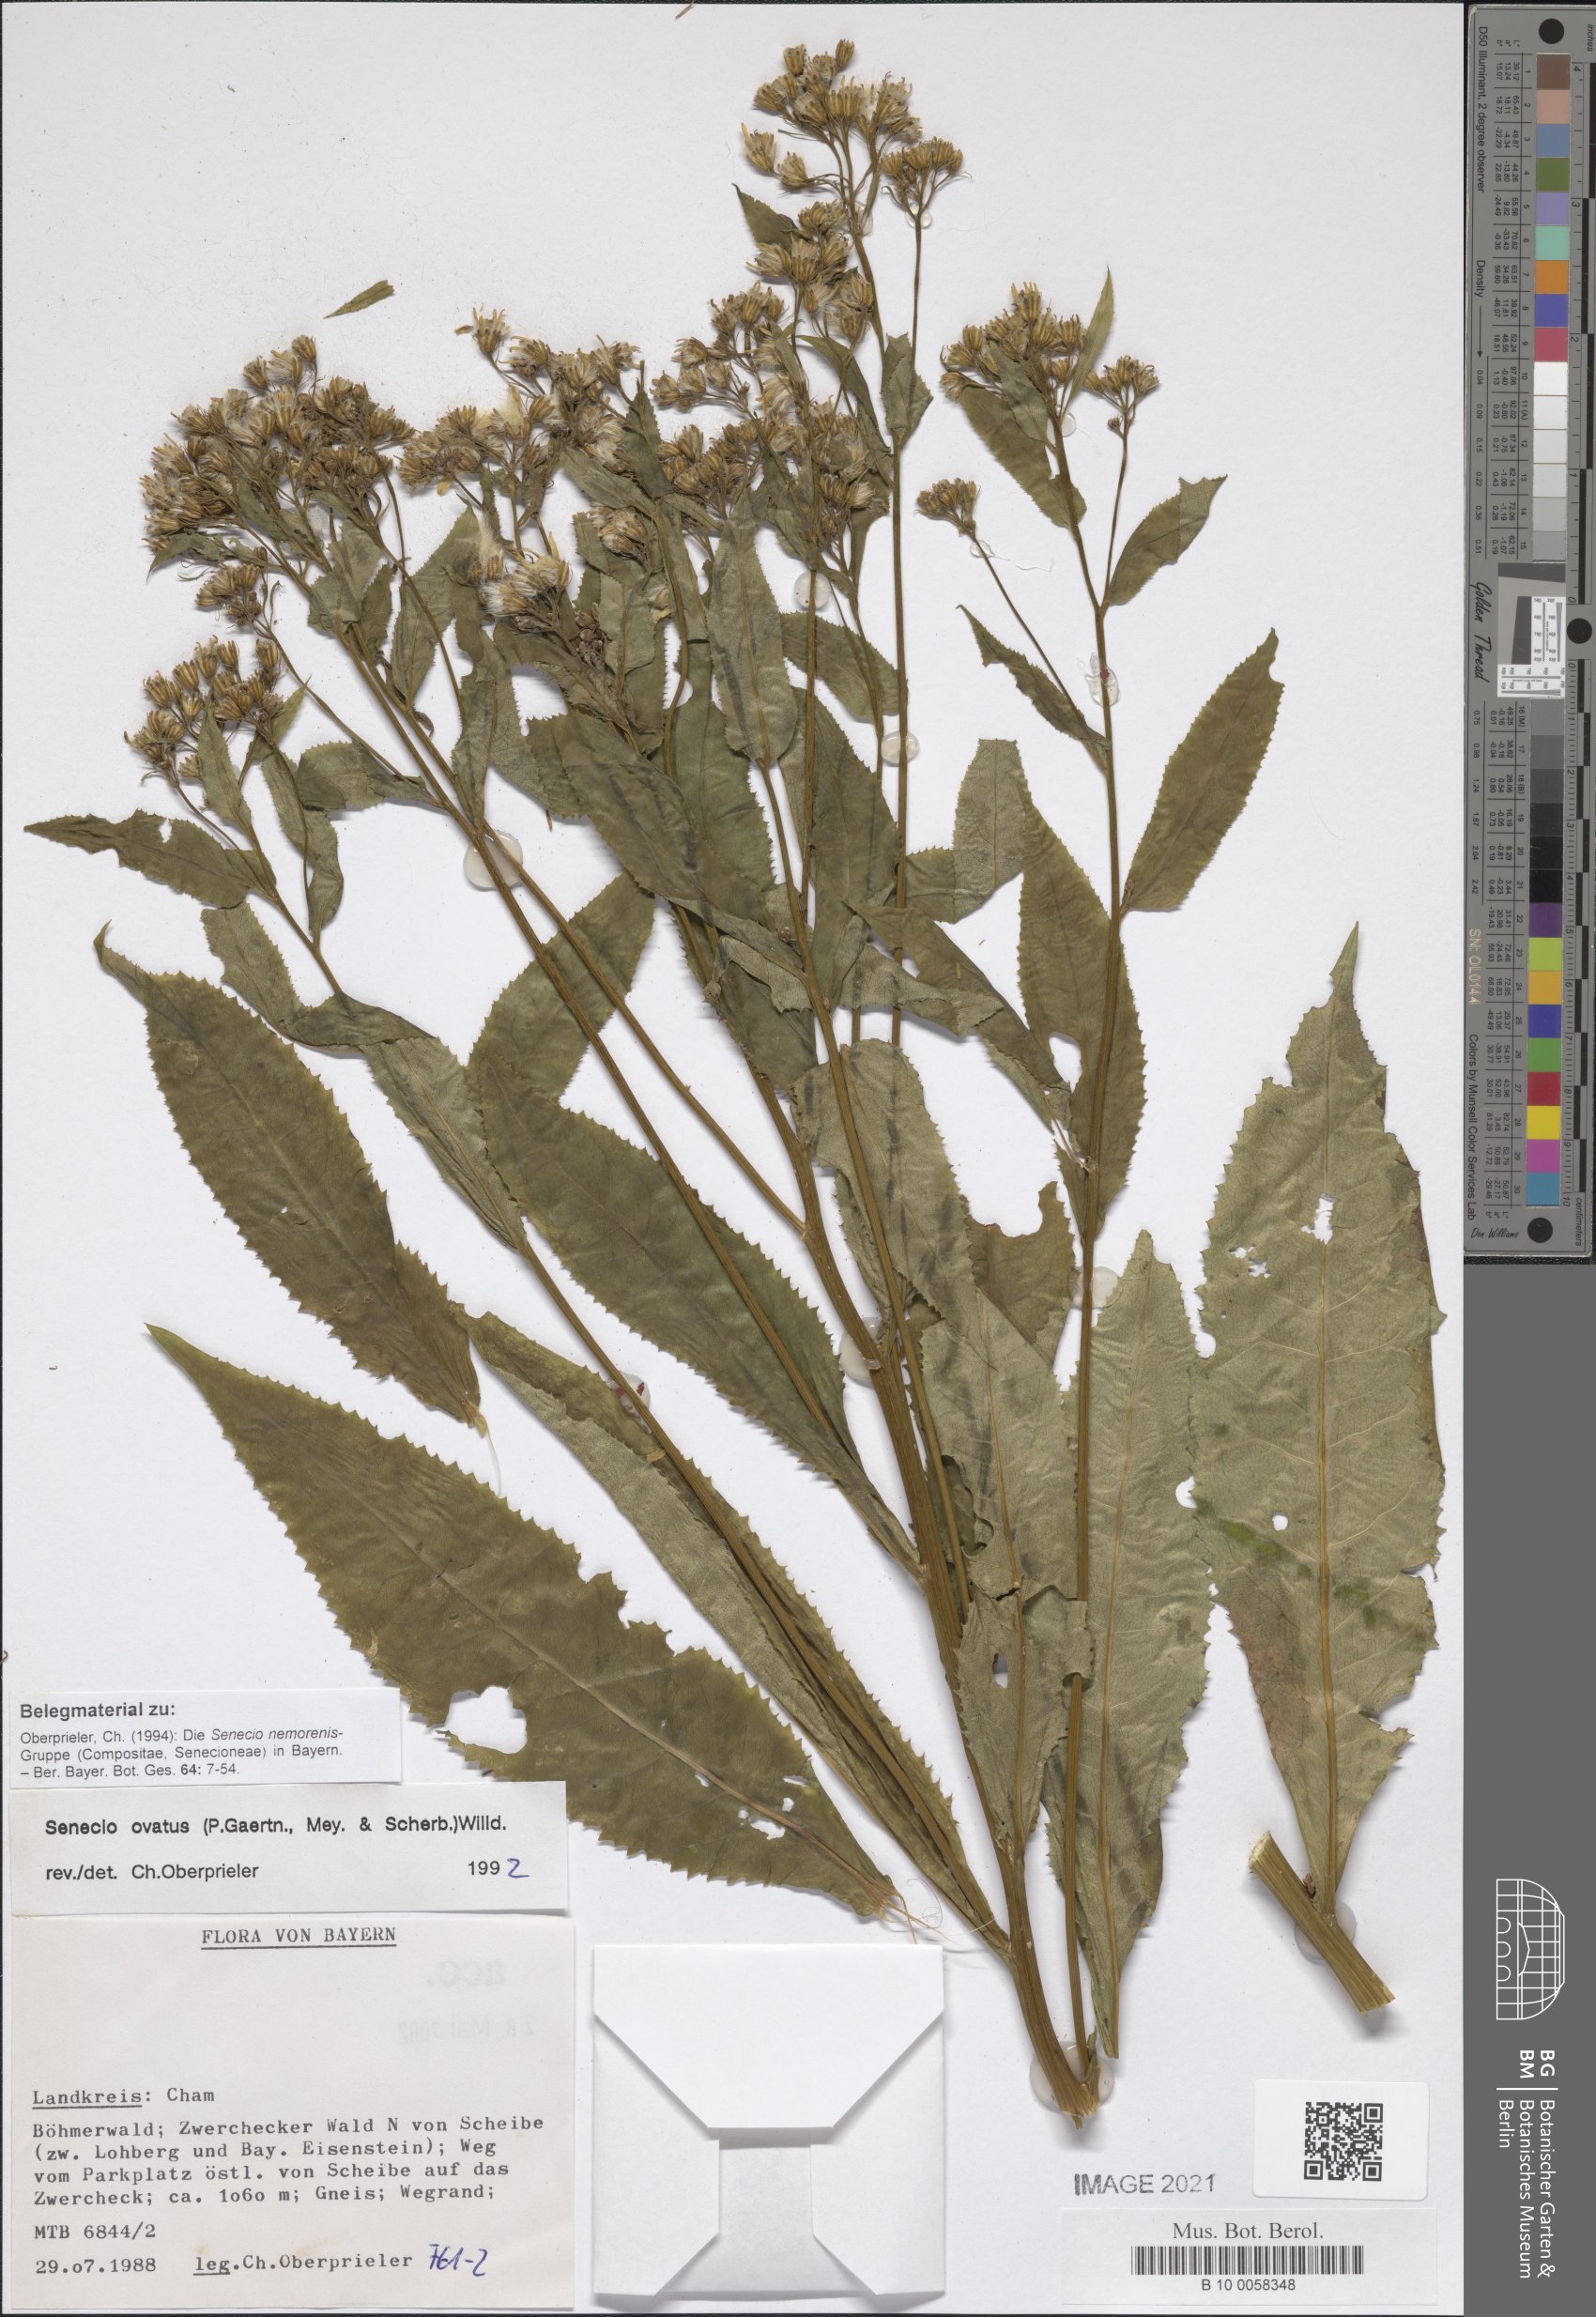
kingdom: Plantae
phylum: Tracheophyta
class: Magnoliopsida
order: Asterales
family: Asteraceae
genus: Senecio
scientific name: Senecio ovatus
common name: Wood ragwort
